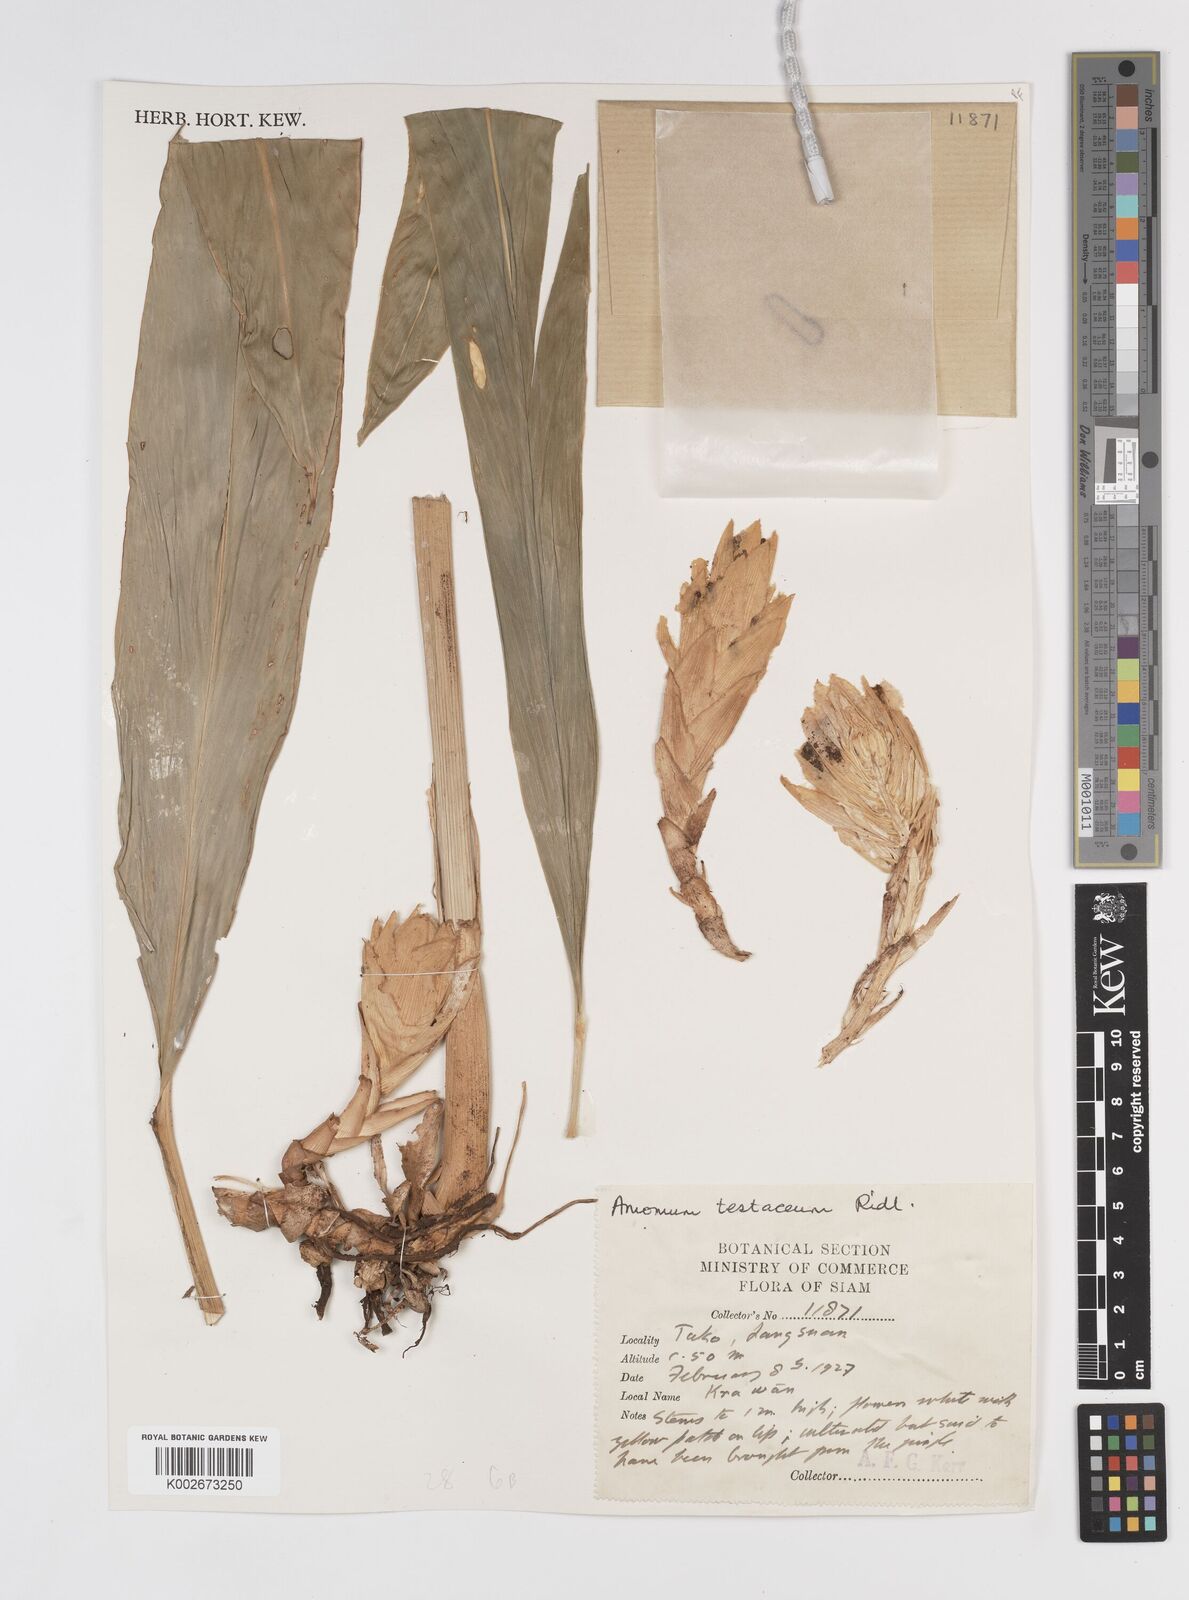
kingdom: Plantae
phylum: Tracheophyta
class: Liliopsida
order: Zingiberales
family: Zingiberaceae
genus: Wurfbainia
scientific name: Wurfbainia testacea
